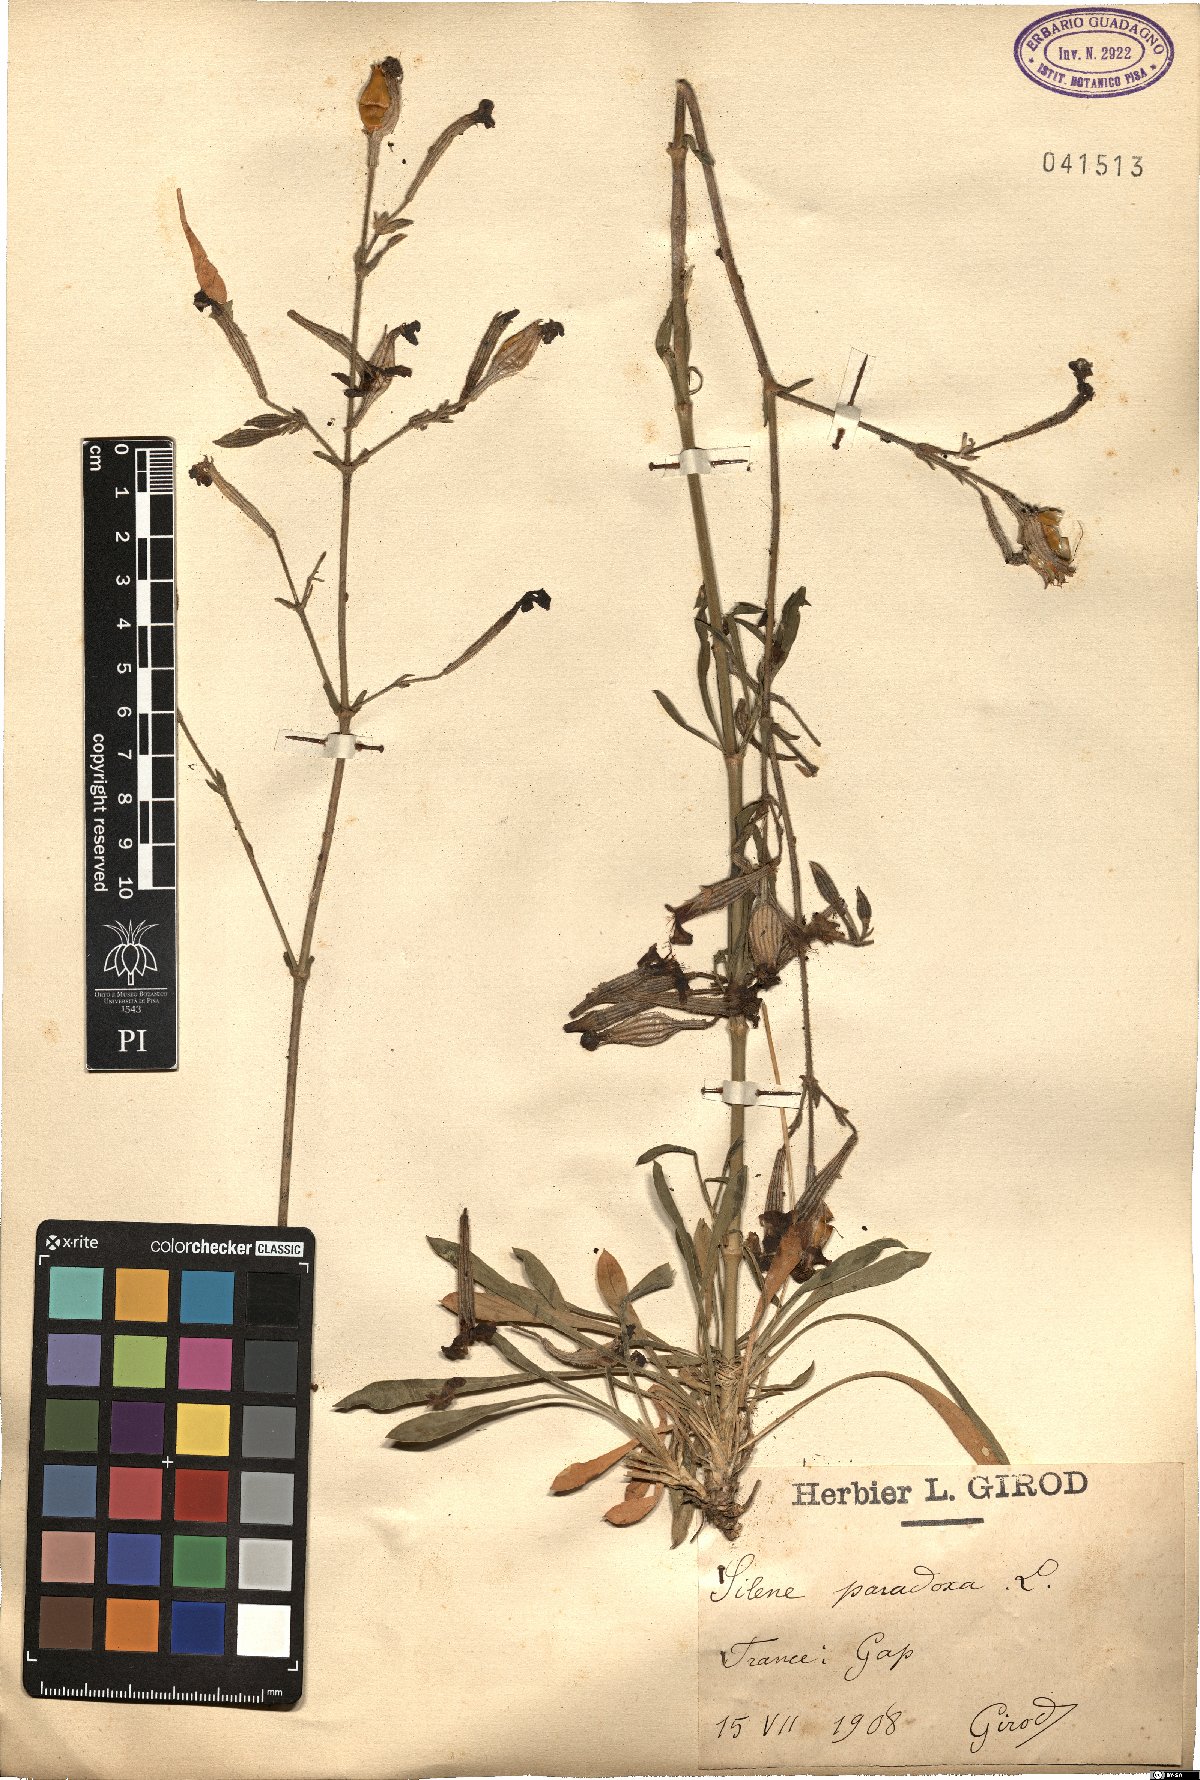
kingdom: Plantae
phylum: Tracheophyta
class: Magnoliopsida
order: Caryophyllales
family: Caryophyllaceae
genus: Silene
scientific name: Silene paradoxa
